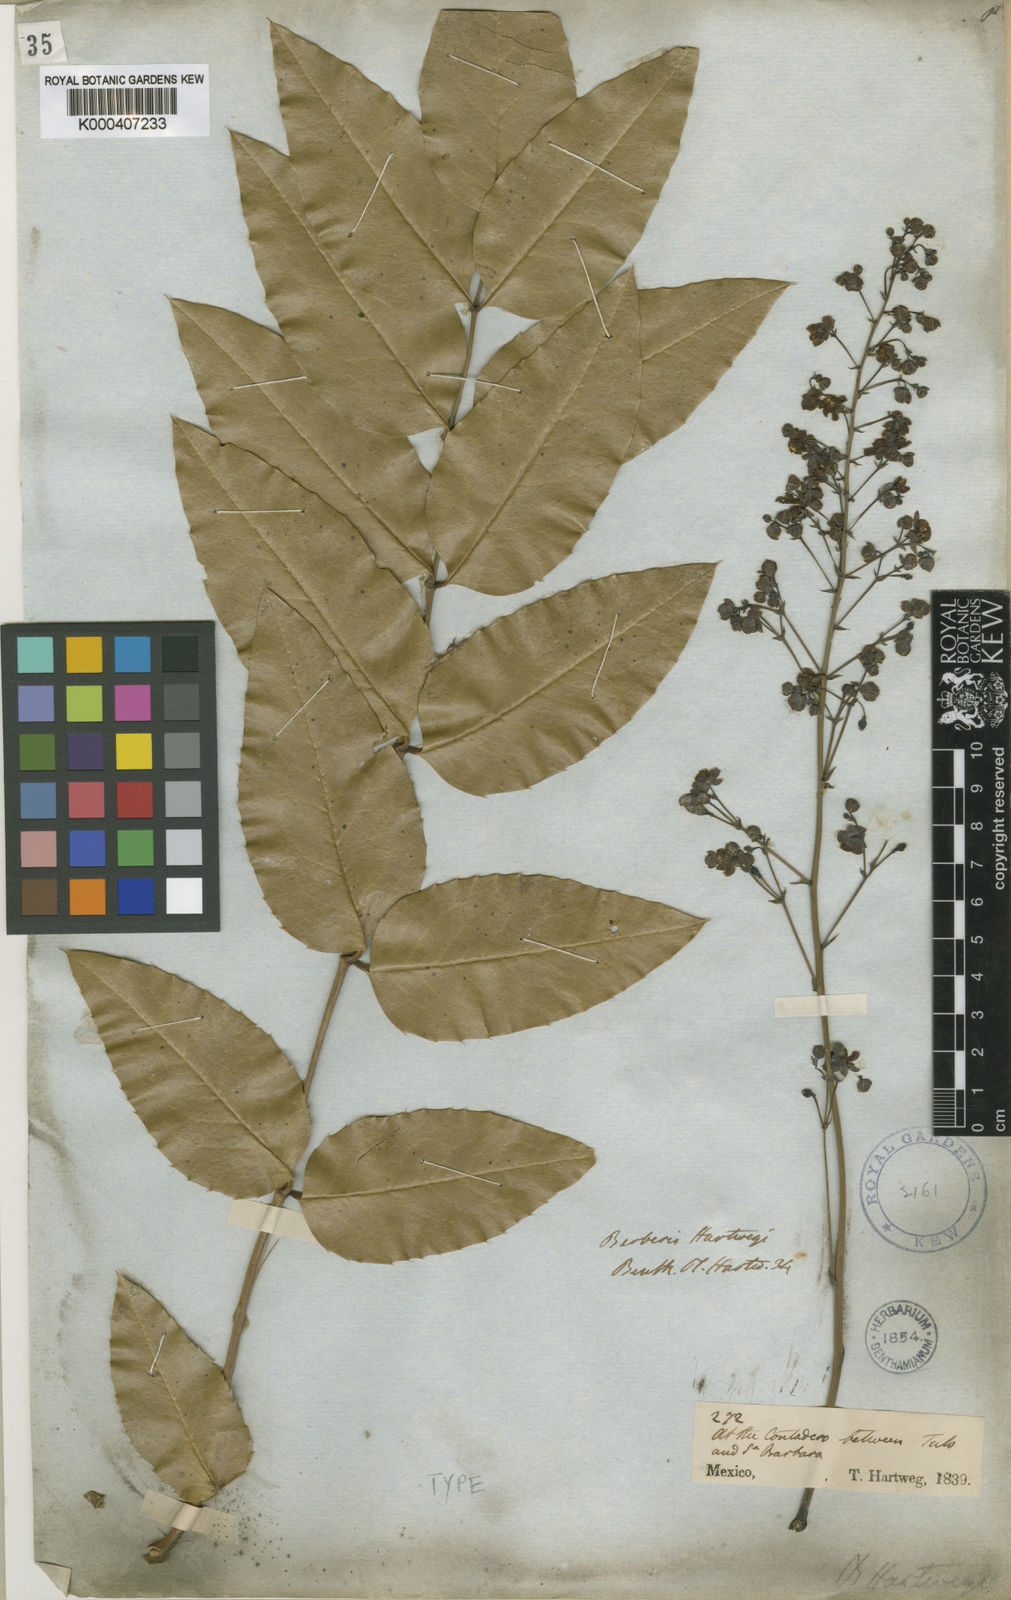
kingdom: Plantae
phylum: Tracheophyta
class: Magnoliopsida
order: Ranunculales
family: Berberidaceae
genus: Mahonia
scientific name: Mahonia hartwegii
